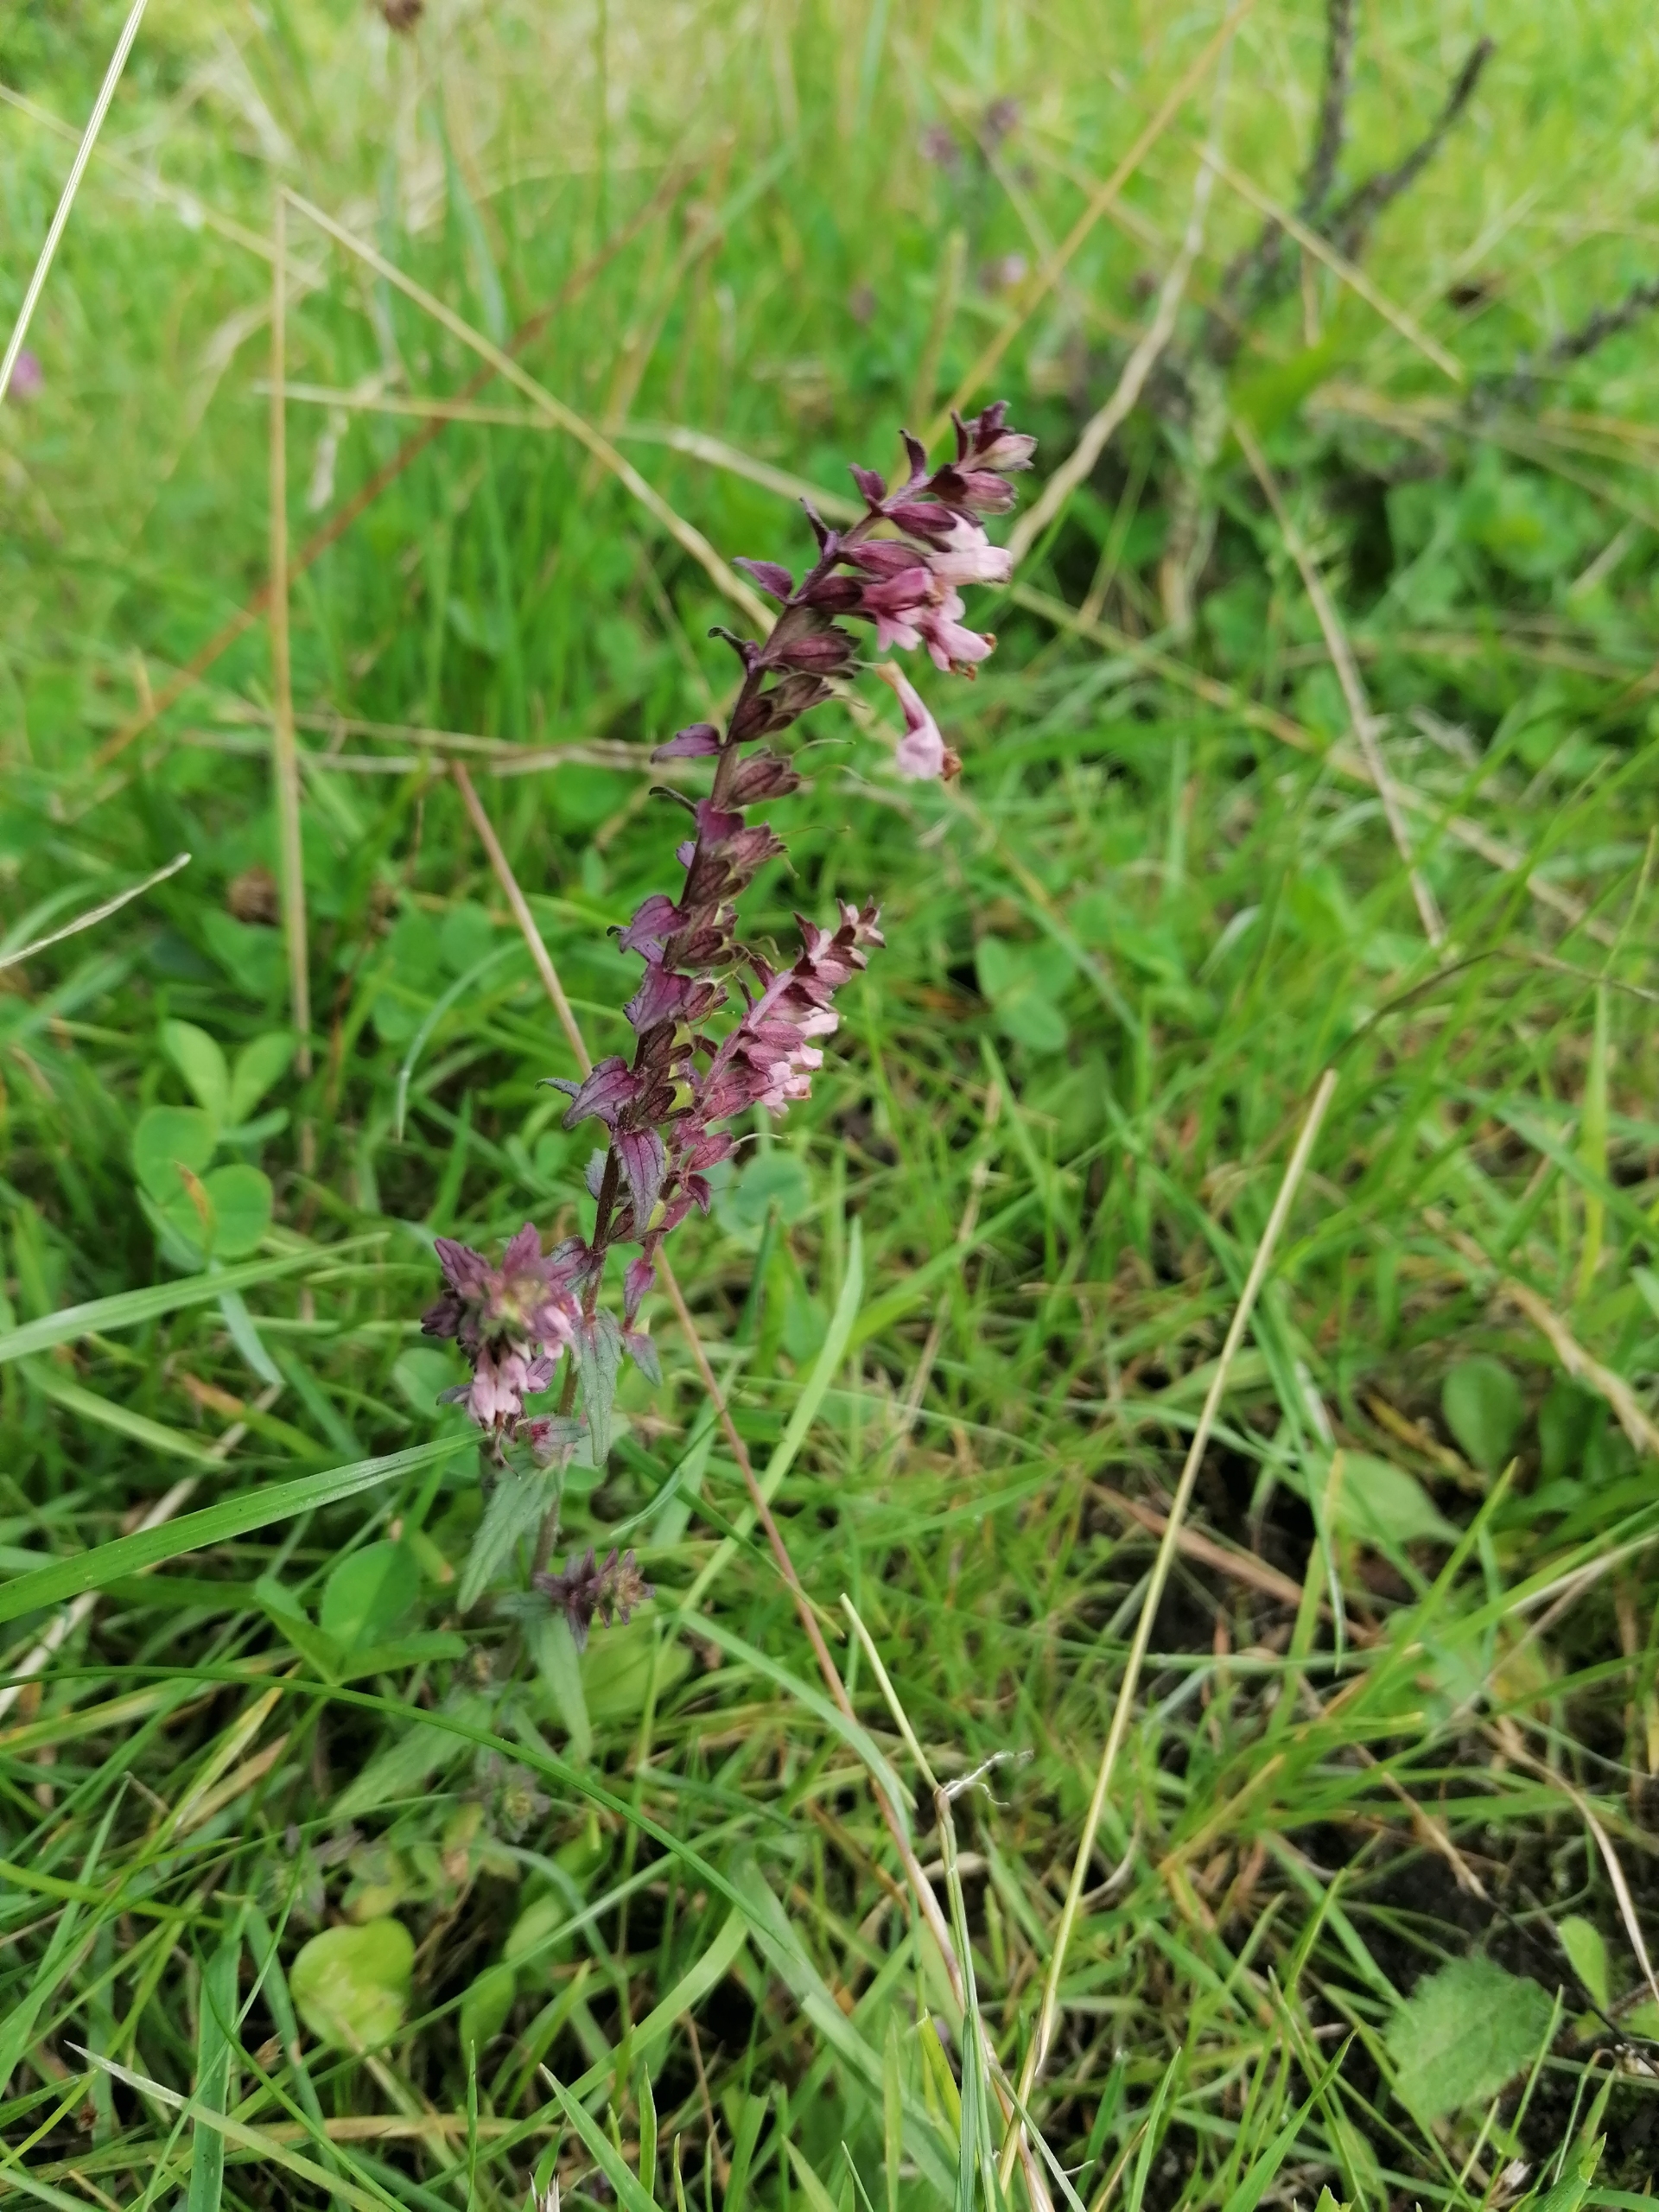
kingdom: Plantae
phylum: Tracheophyta
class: Magnoliopsida
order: Lamiales
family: Orobanchaceae
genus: Odontites
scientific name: Odontites vulgaris
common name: Høst-rødtop
